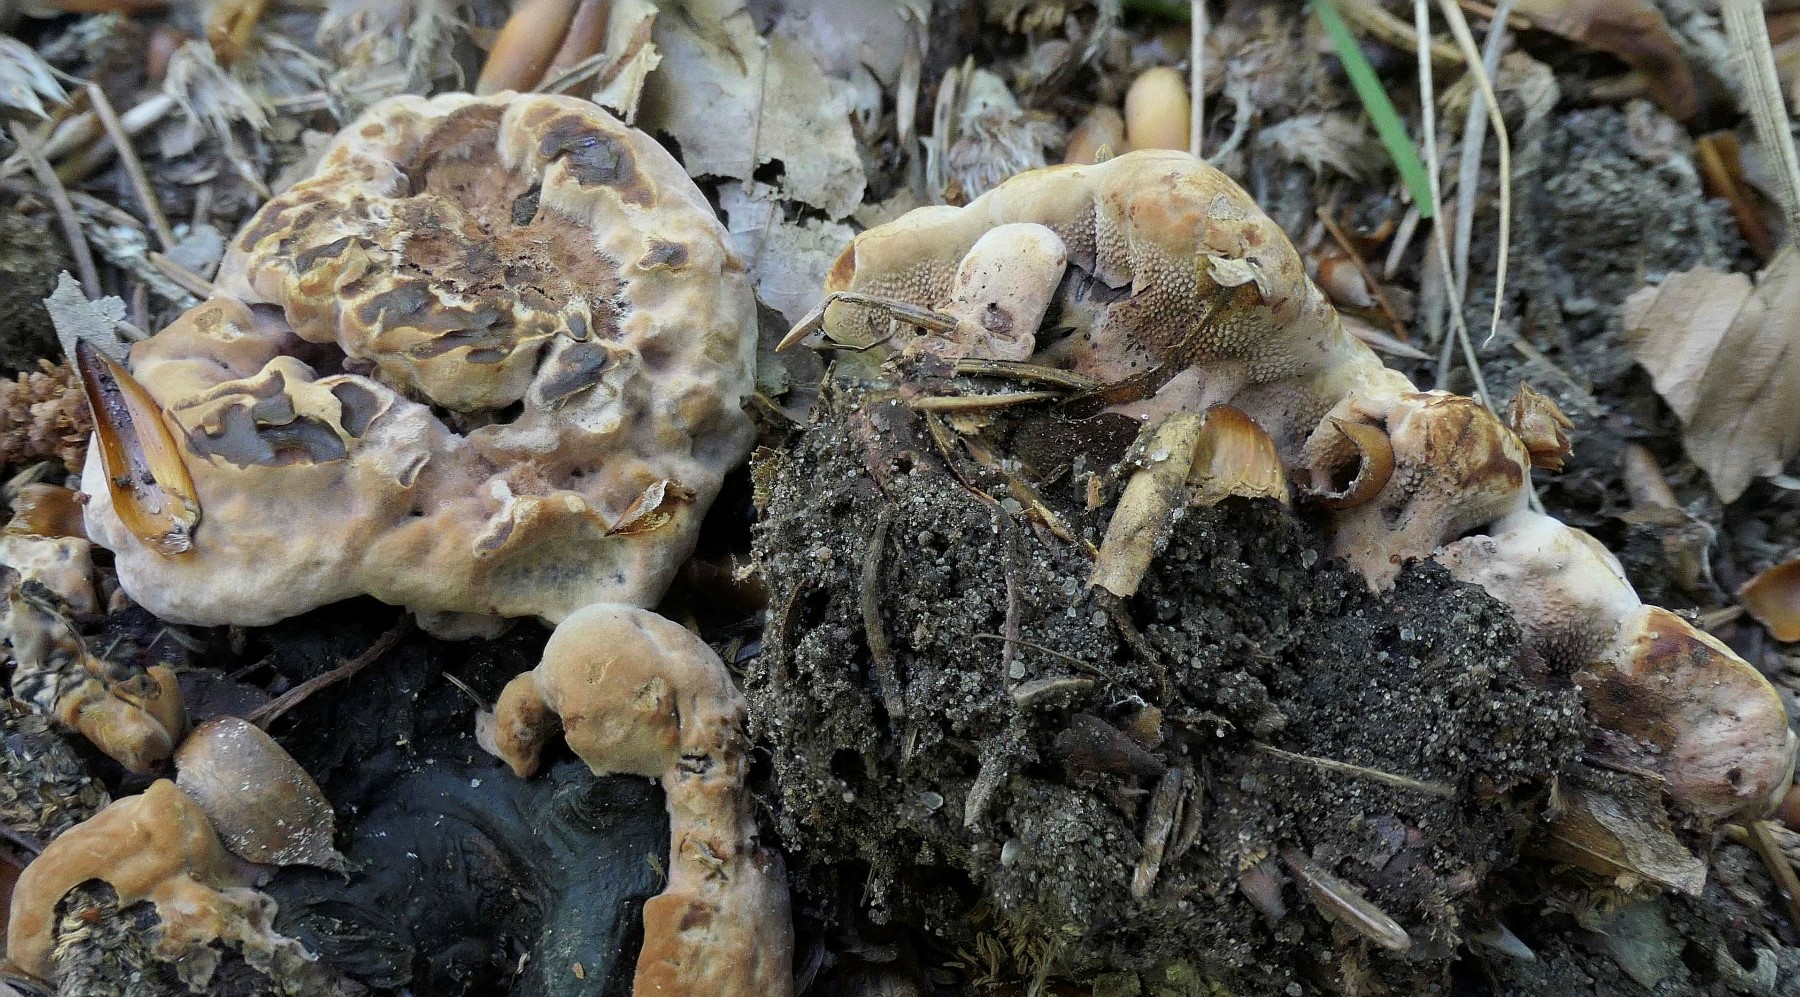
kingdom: Fungi
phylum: Basidiomycota
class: Agaricomycetes
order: Thelephorales
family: Bankeraceae
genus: Hydnellum
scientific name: Hydnellum
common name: korkpigsvamp
